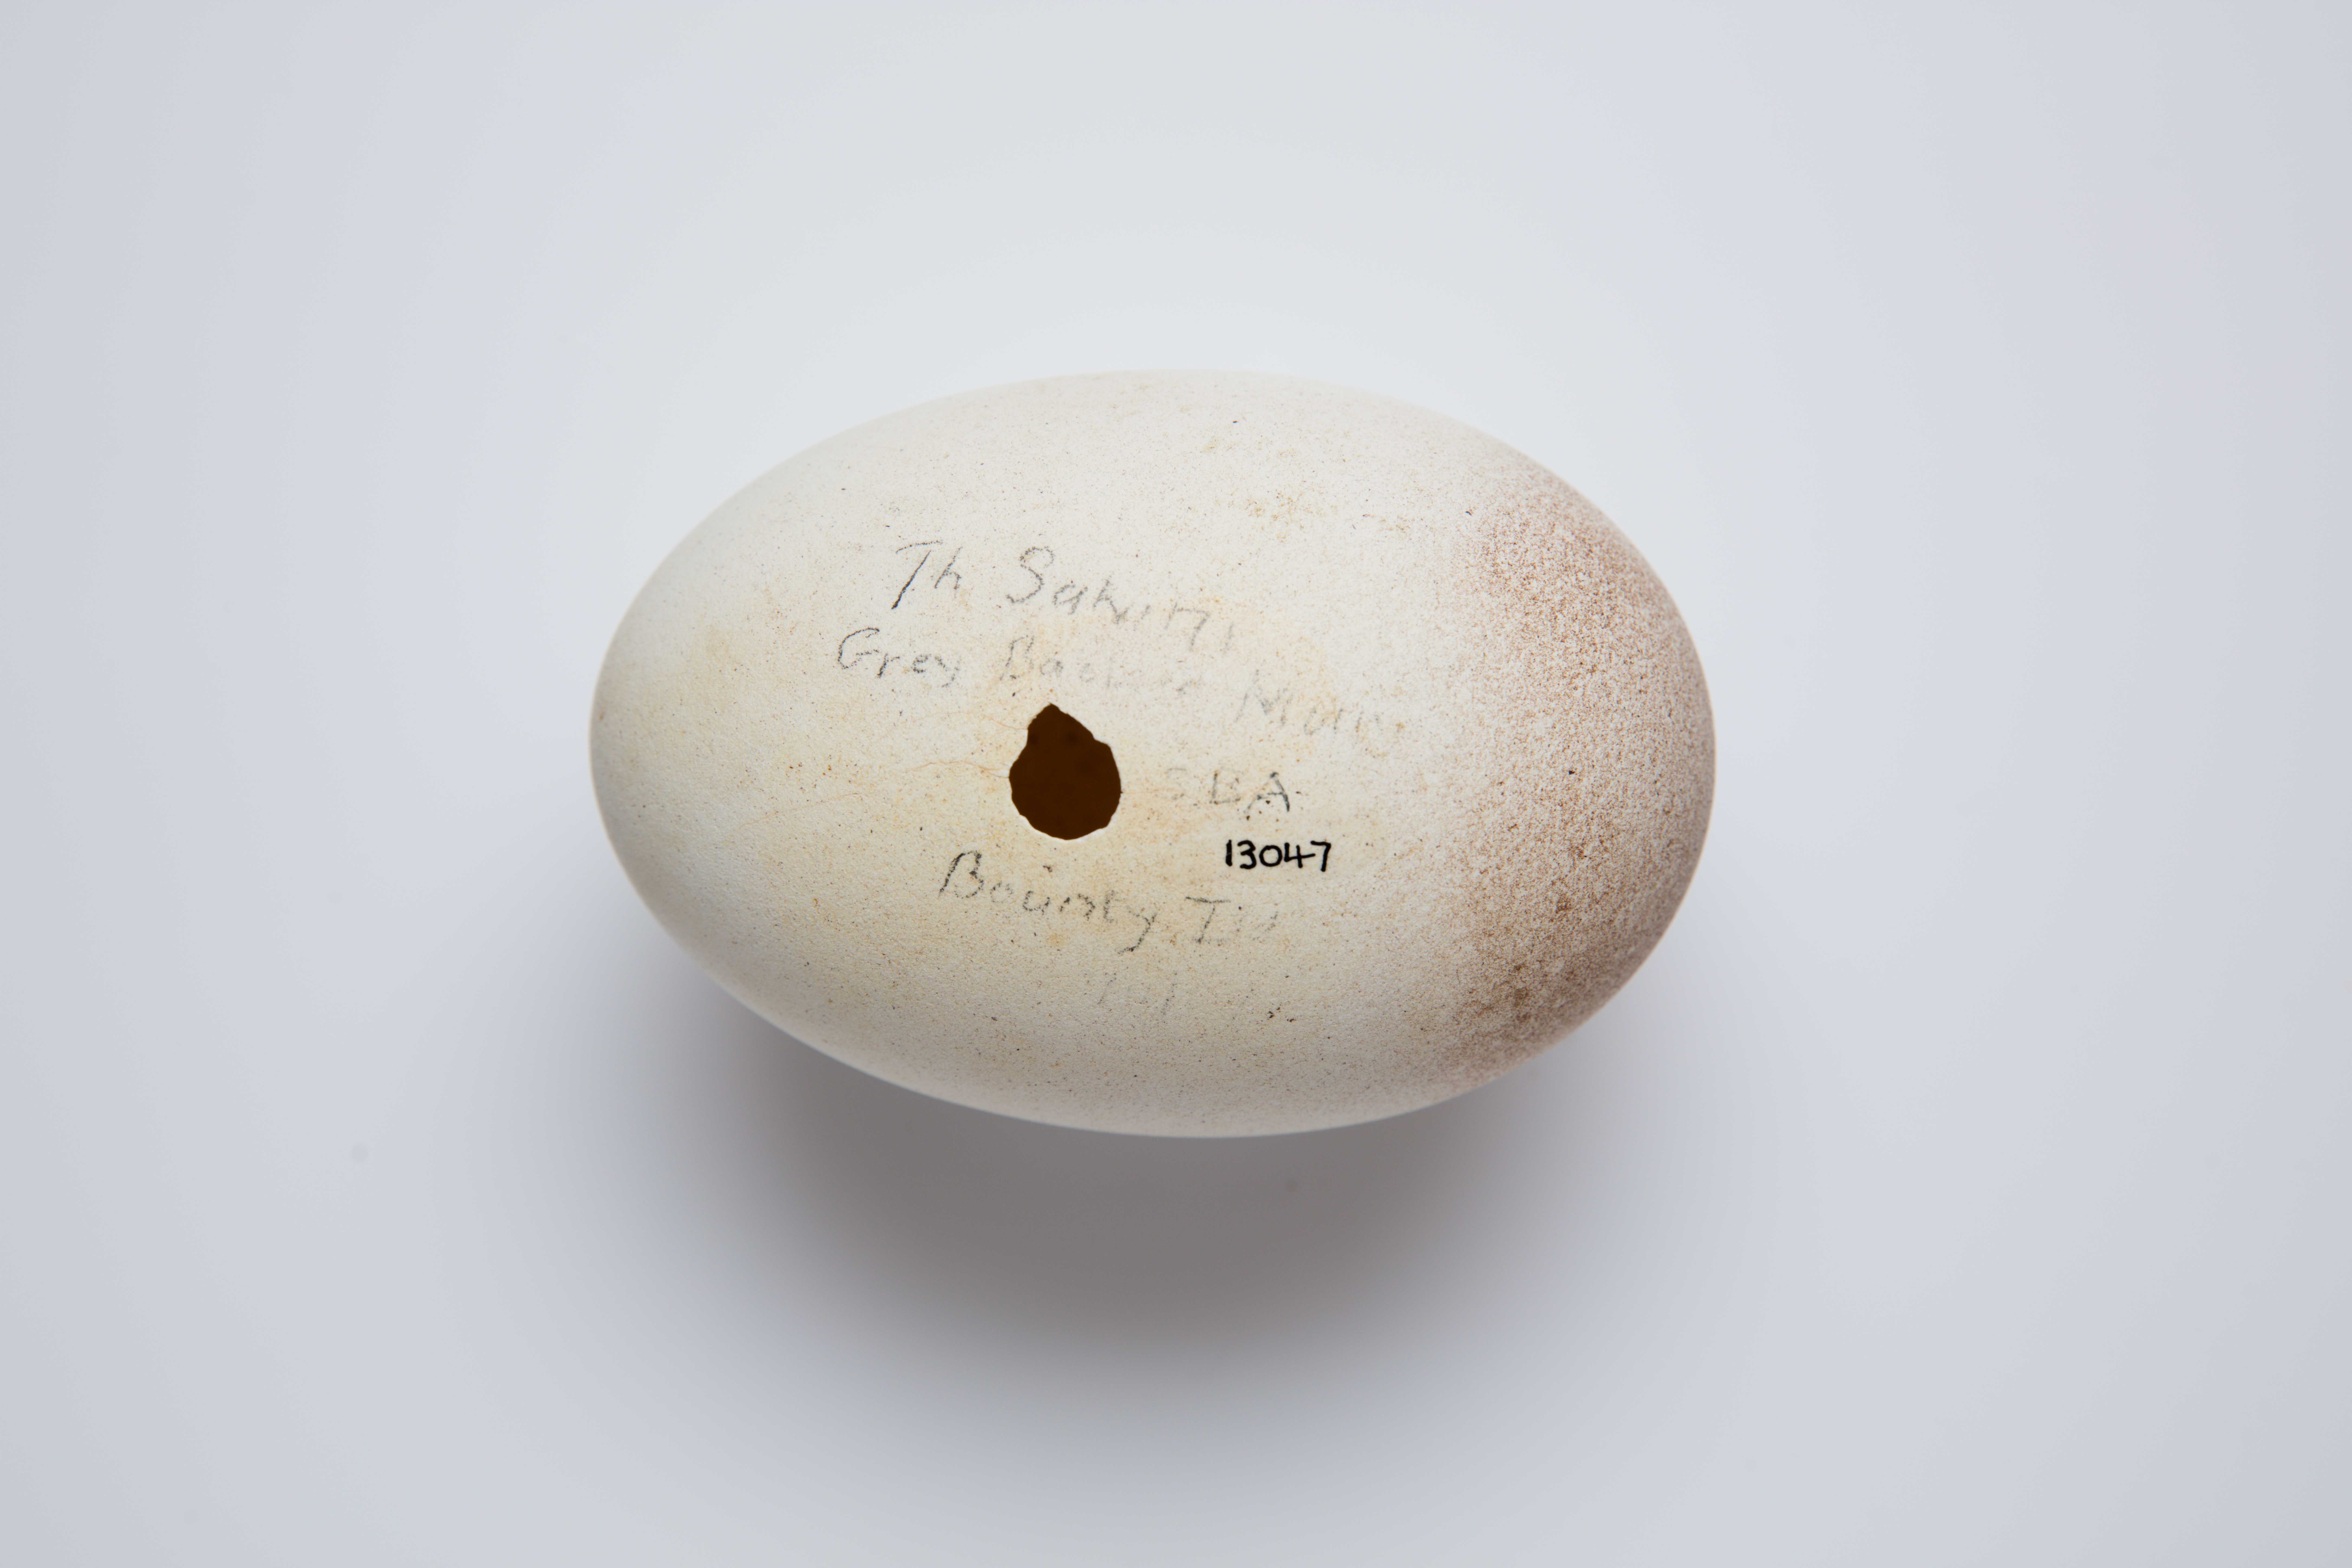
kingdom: Animalia
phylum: Chordata
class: Aves
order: Procellariiformes
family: Diomedeidae
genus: Thalassarche
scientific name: Thalassarche salvini
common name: Salvin's albatross
